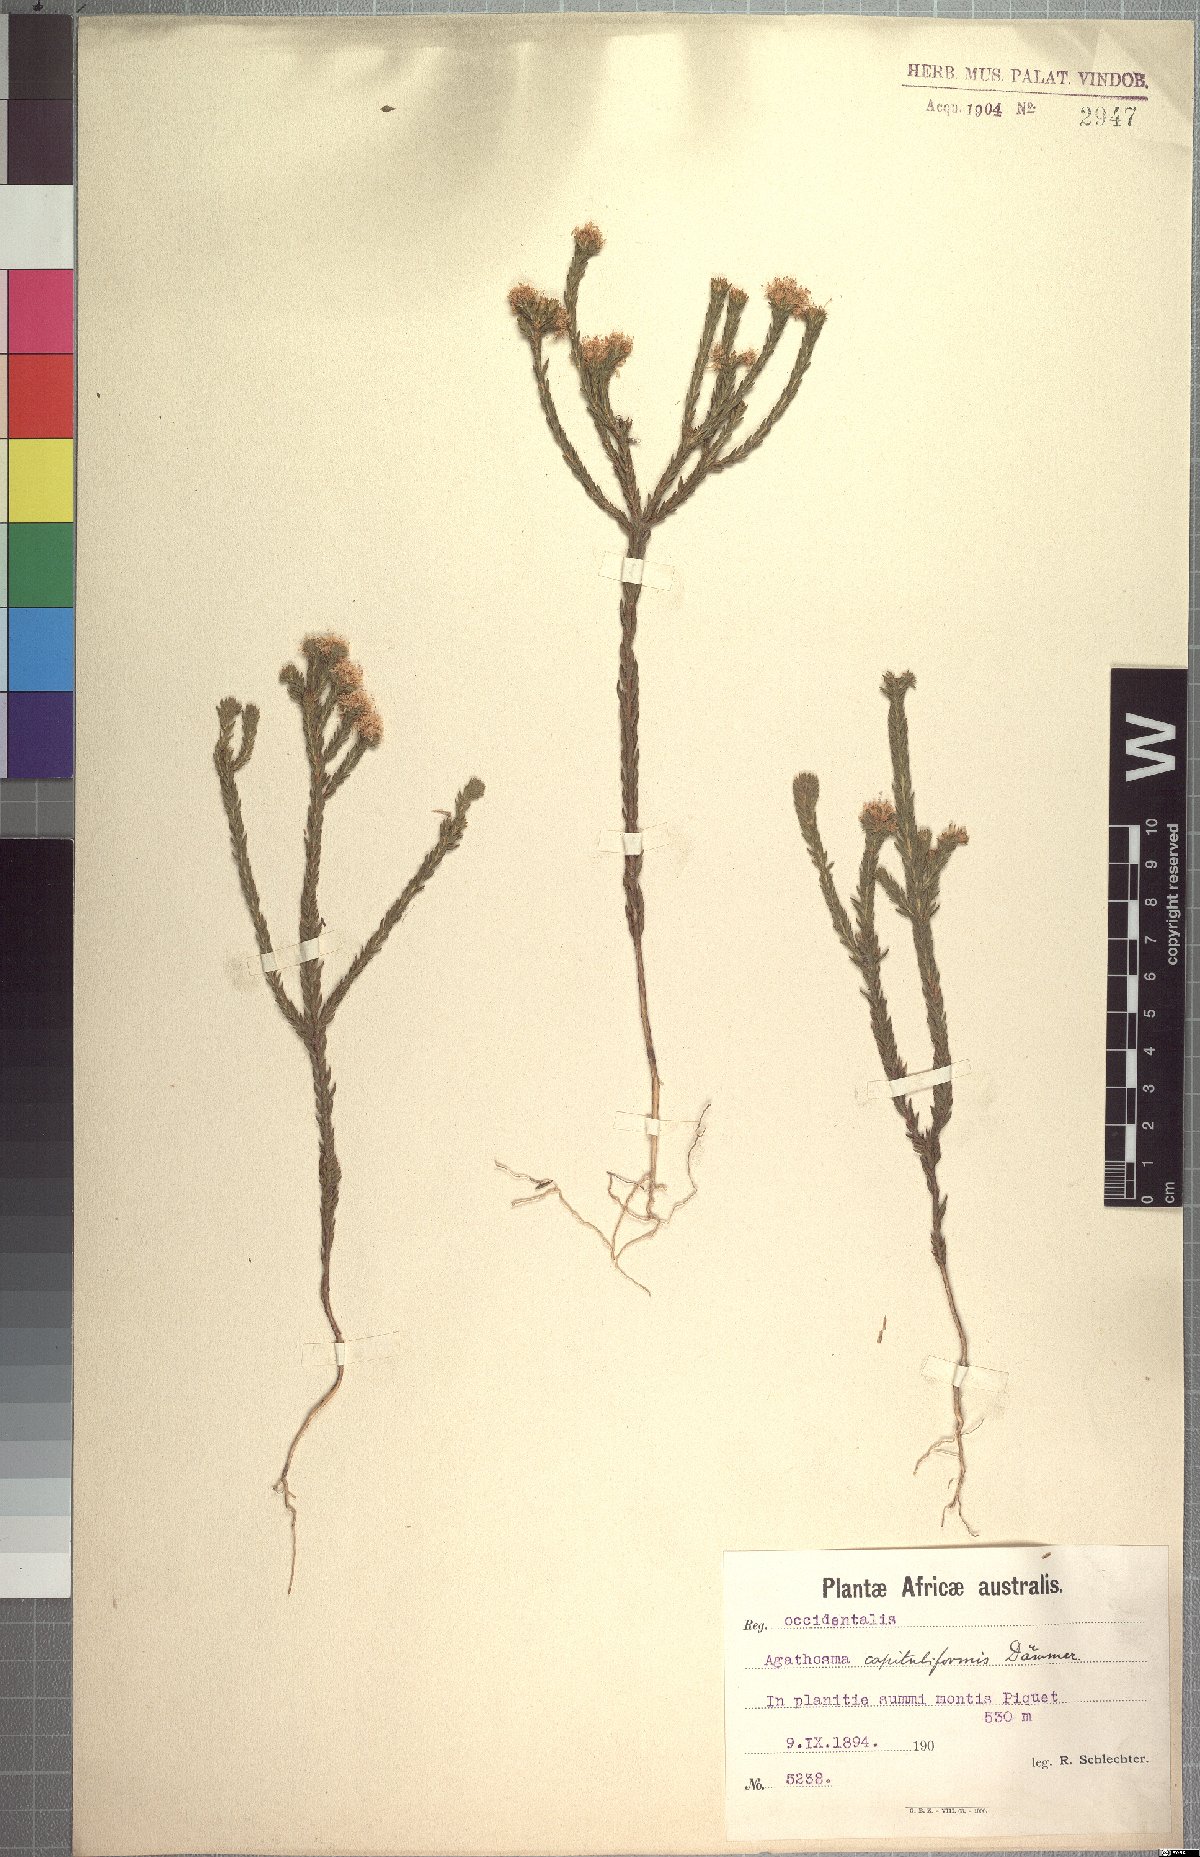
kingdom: Plantae
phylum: Tracheophyta
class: Magnoliopsida
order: Sapindales
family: Rutaceae
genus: Agathosma
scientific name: Agathosma capitata
